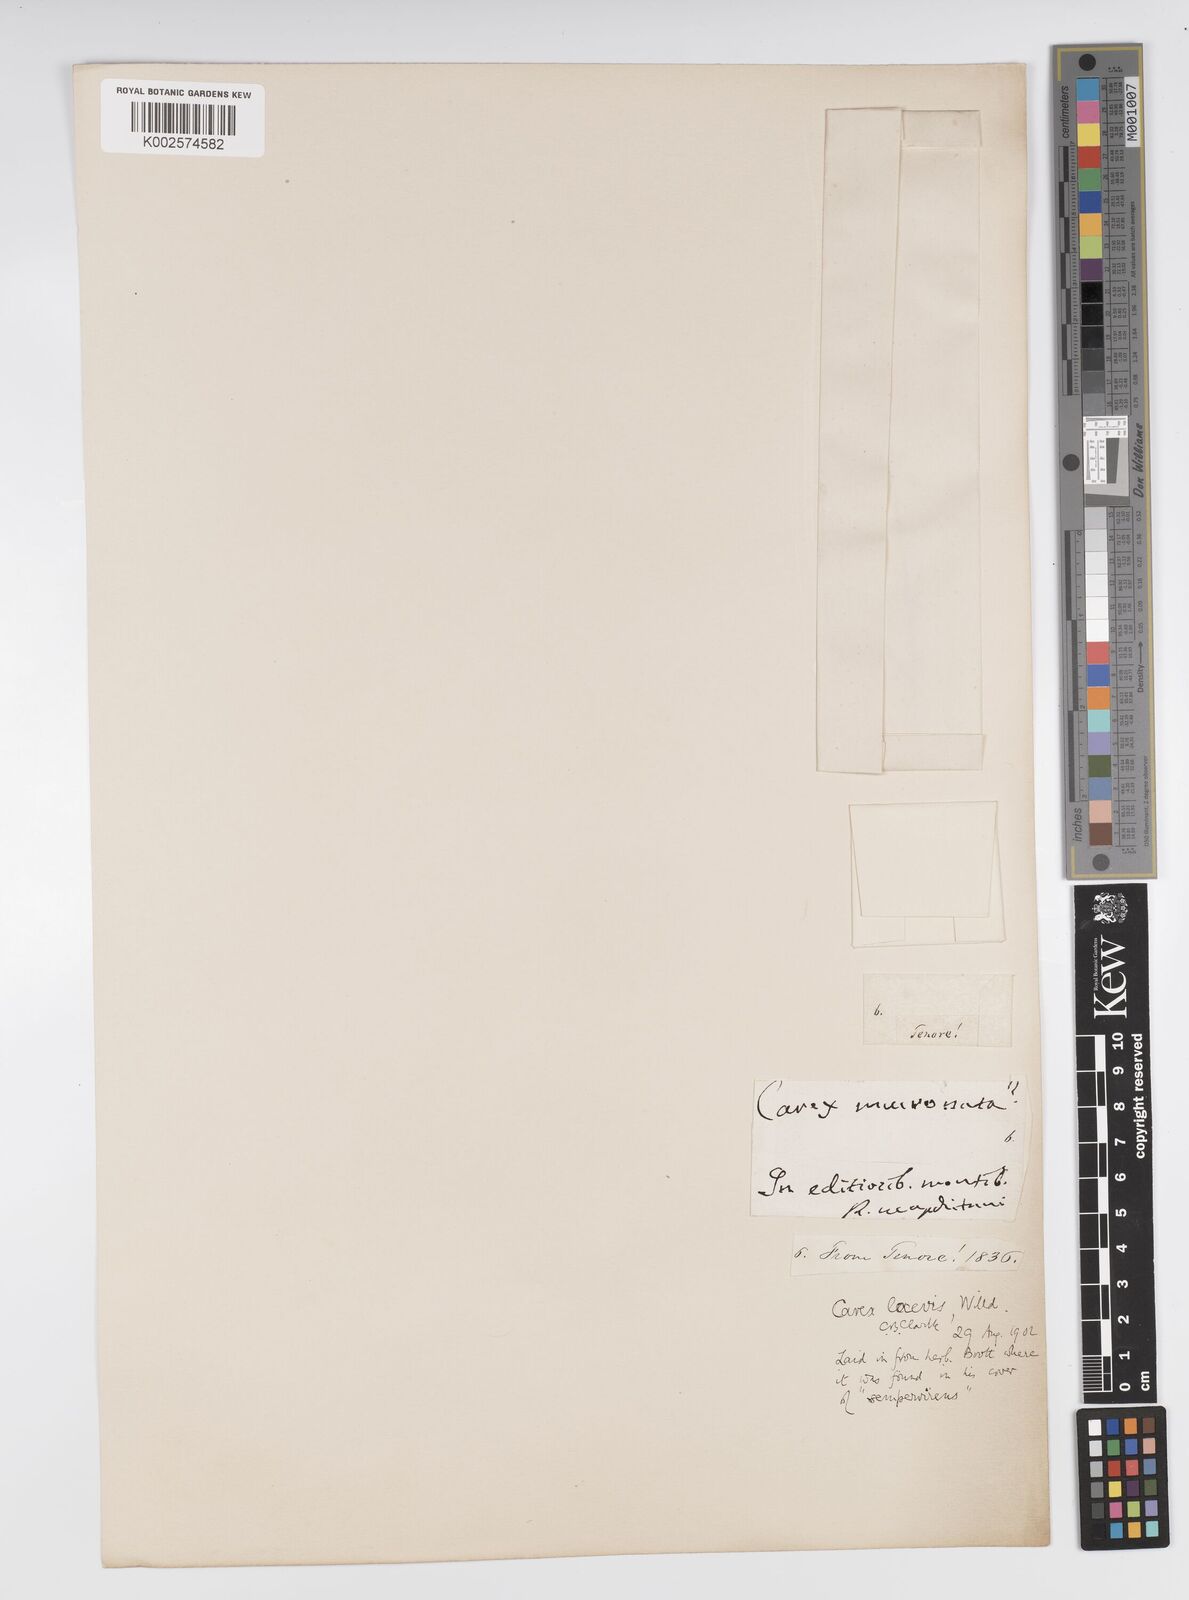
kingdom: Plantae
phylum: Tracheophyta
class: Liliopsida
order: Poales
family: Cyperaceae
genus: Carex
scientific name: Carex kitaibeliana
